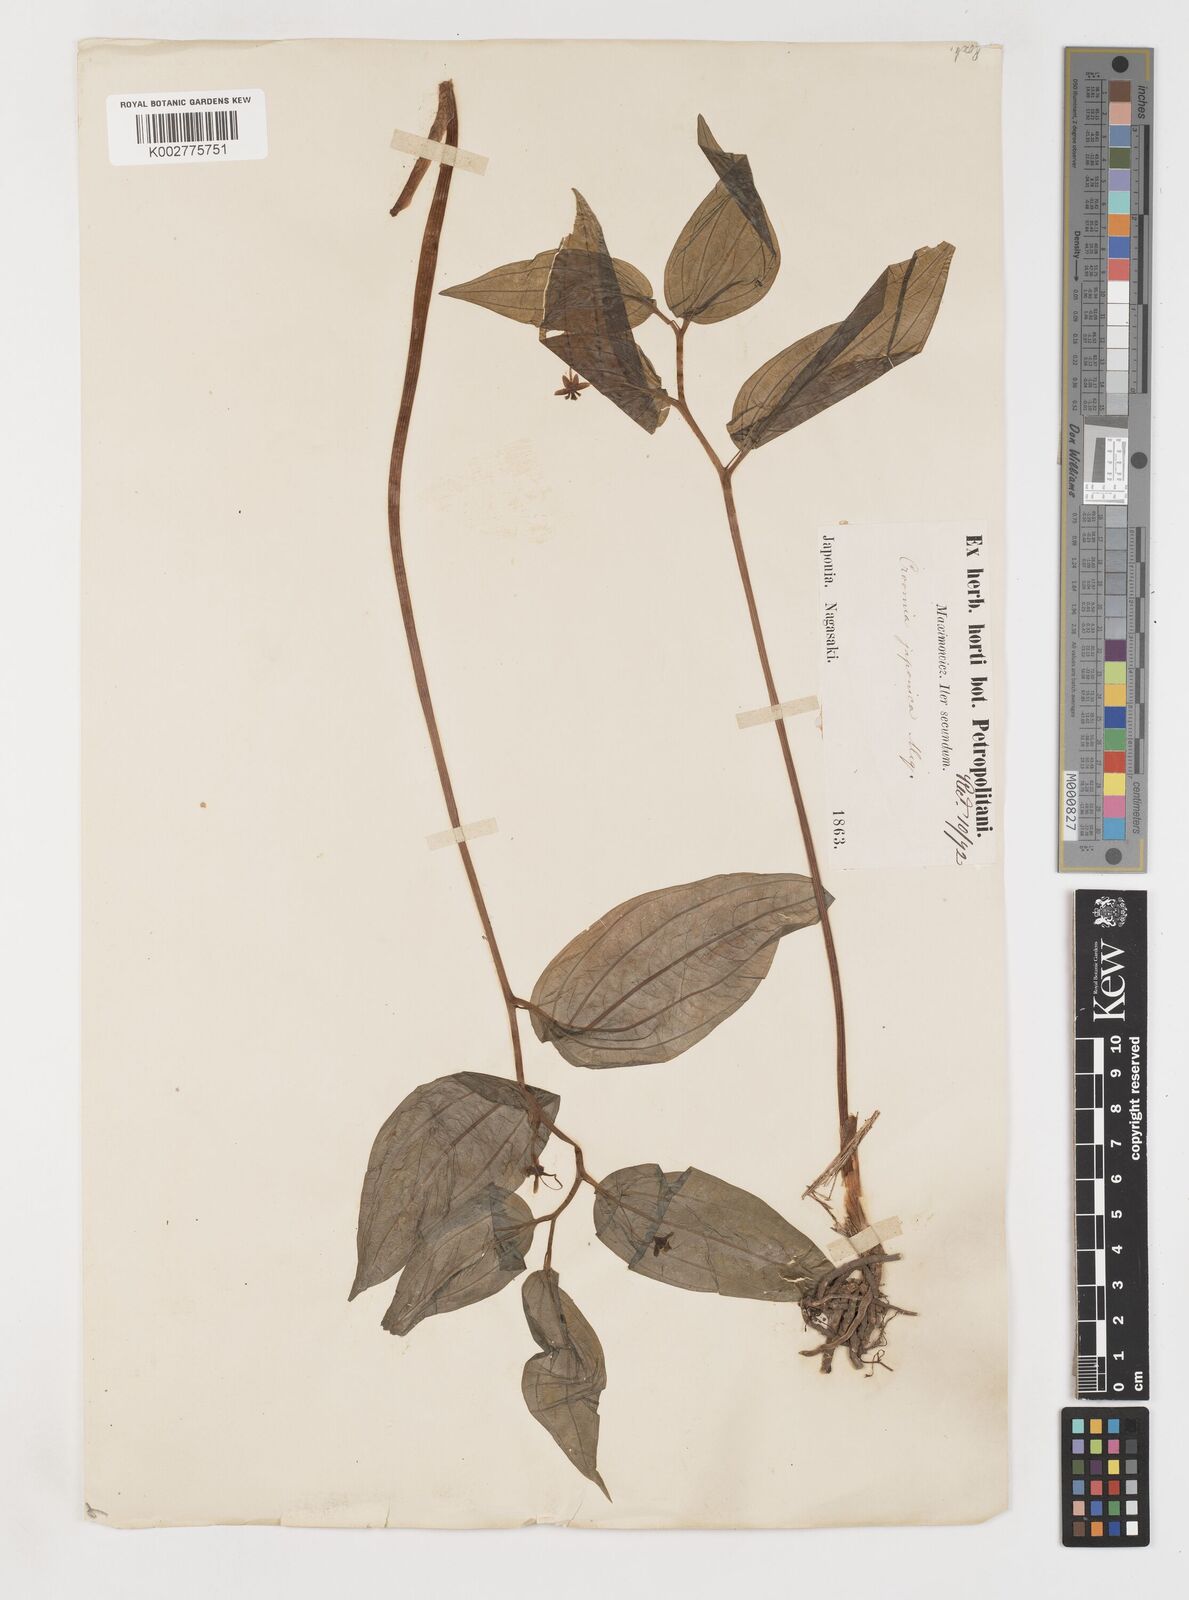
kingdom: Plantae
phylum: Tracheophyta
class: Liliopsida
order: Pandanales
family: Stemonaceae
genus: Croomia
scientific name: Croomia japonica
